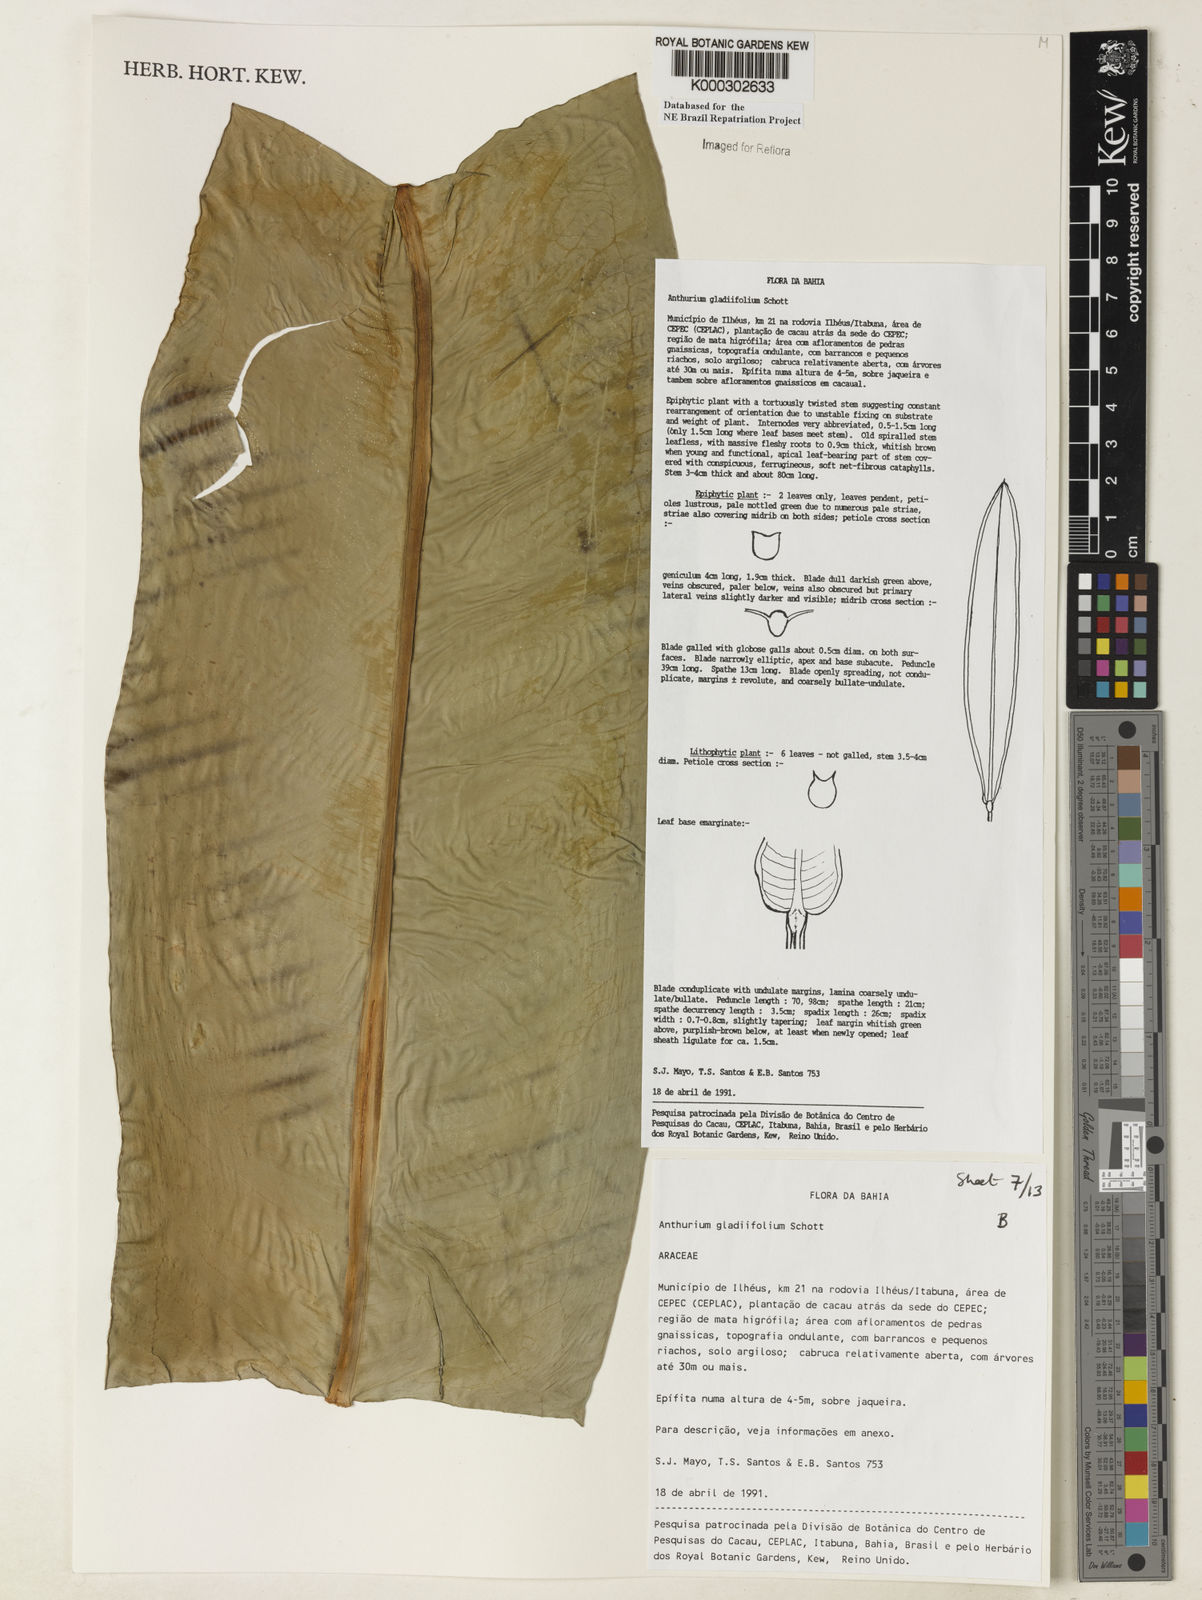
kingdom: Plantae
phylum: Tracheophyta
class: Liliopsida
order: Alismatales
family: Araceae
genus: Anthurium
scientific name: Anthurium gladiifolium
